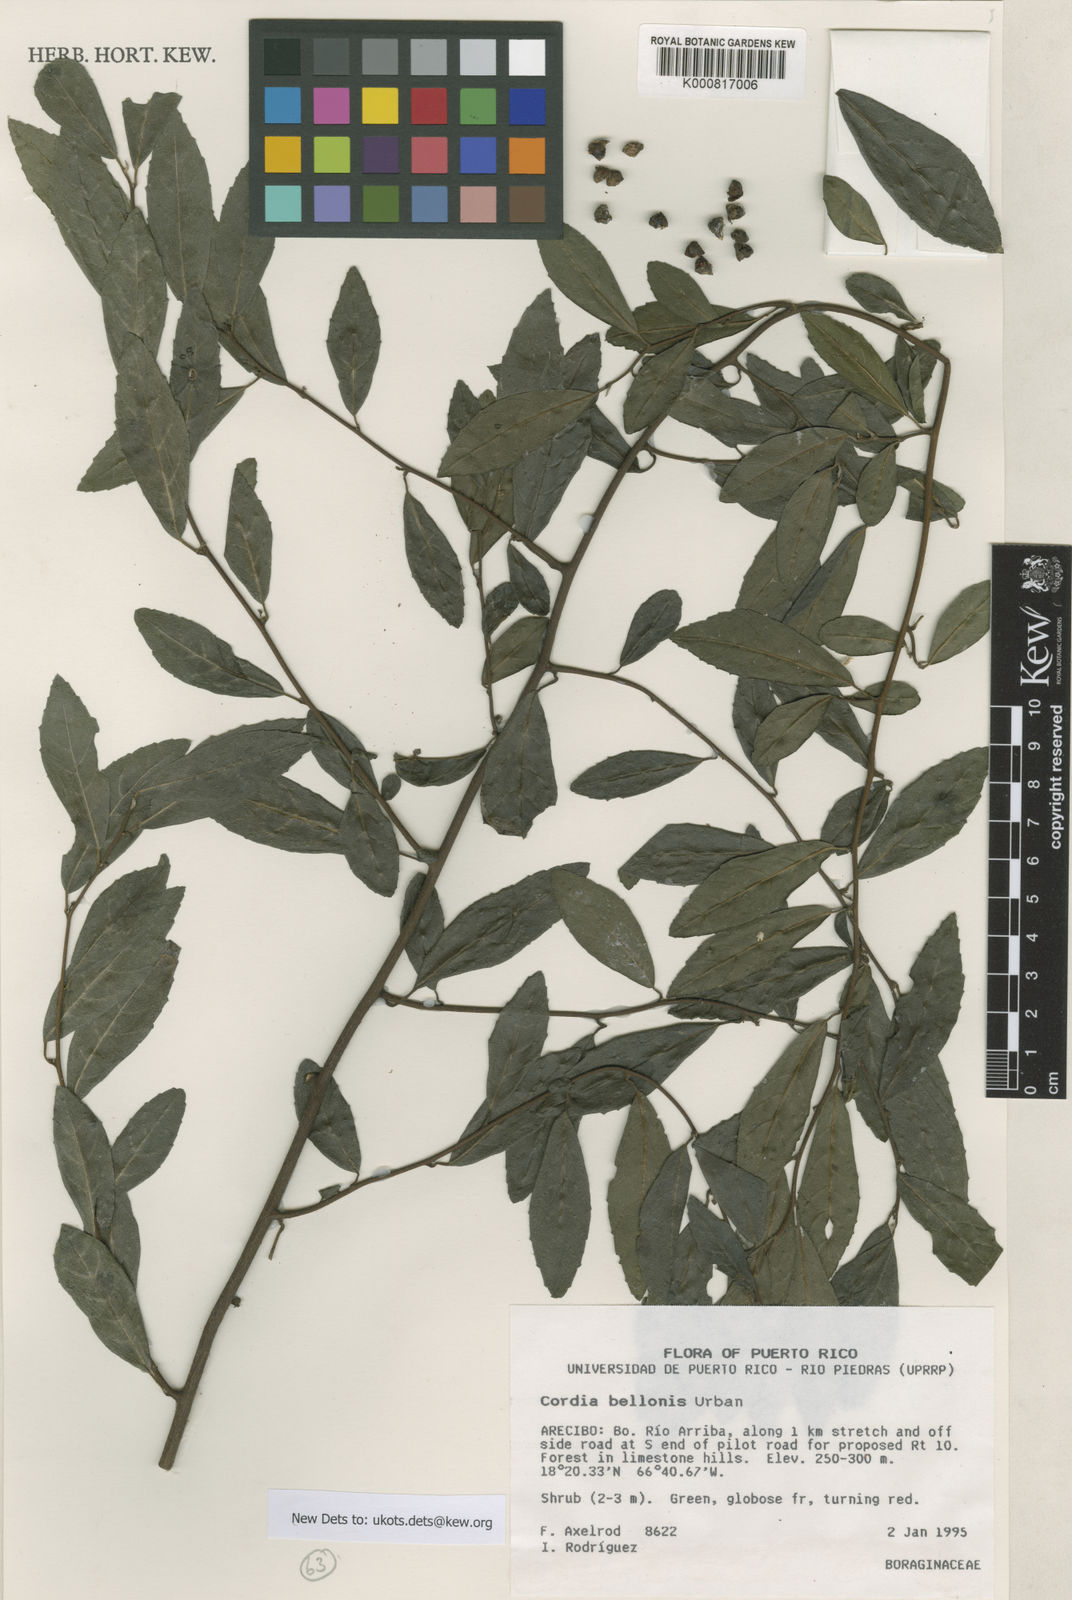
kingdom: Plantae
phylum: Tracheophyta
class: Magnoliopsida
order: Boraginales
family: Cordiaceae
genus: Varronia
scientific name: Varronia bellonis
